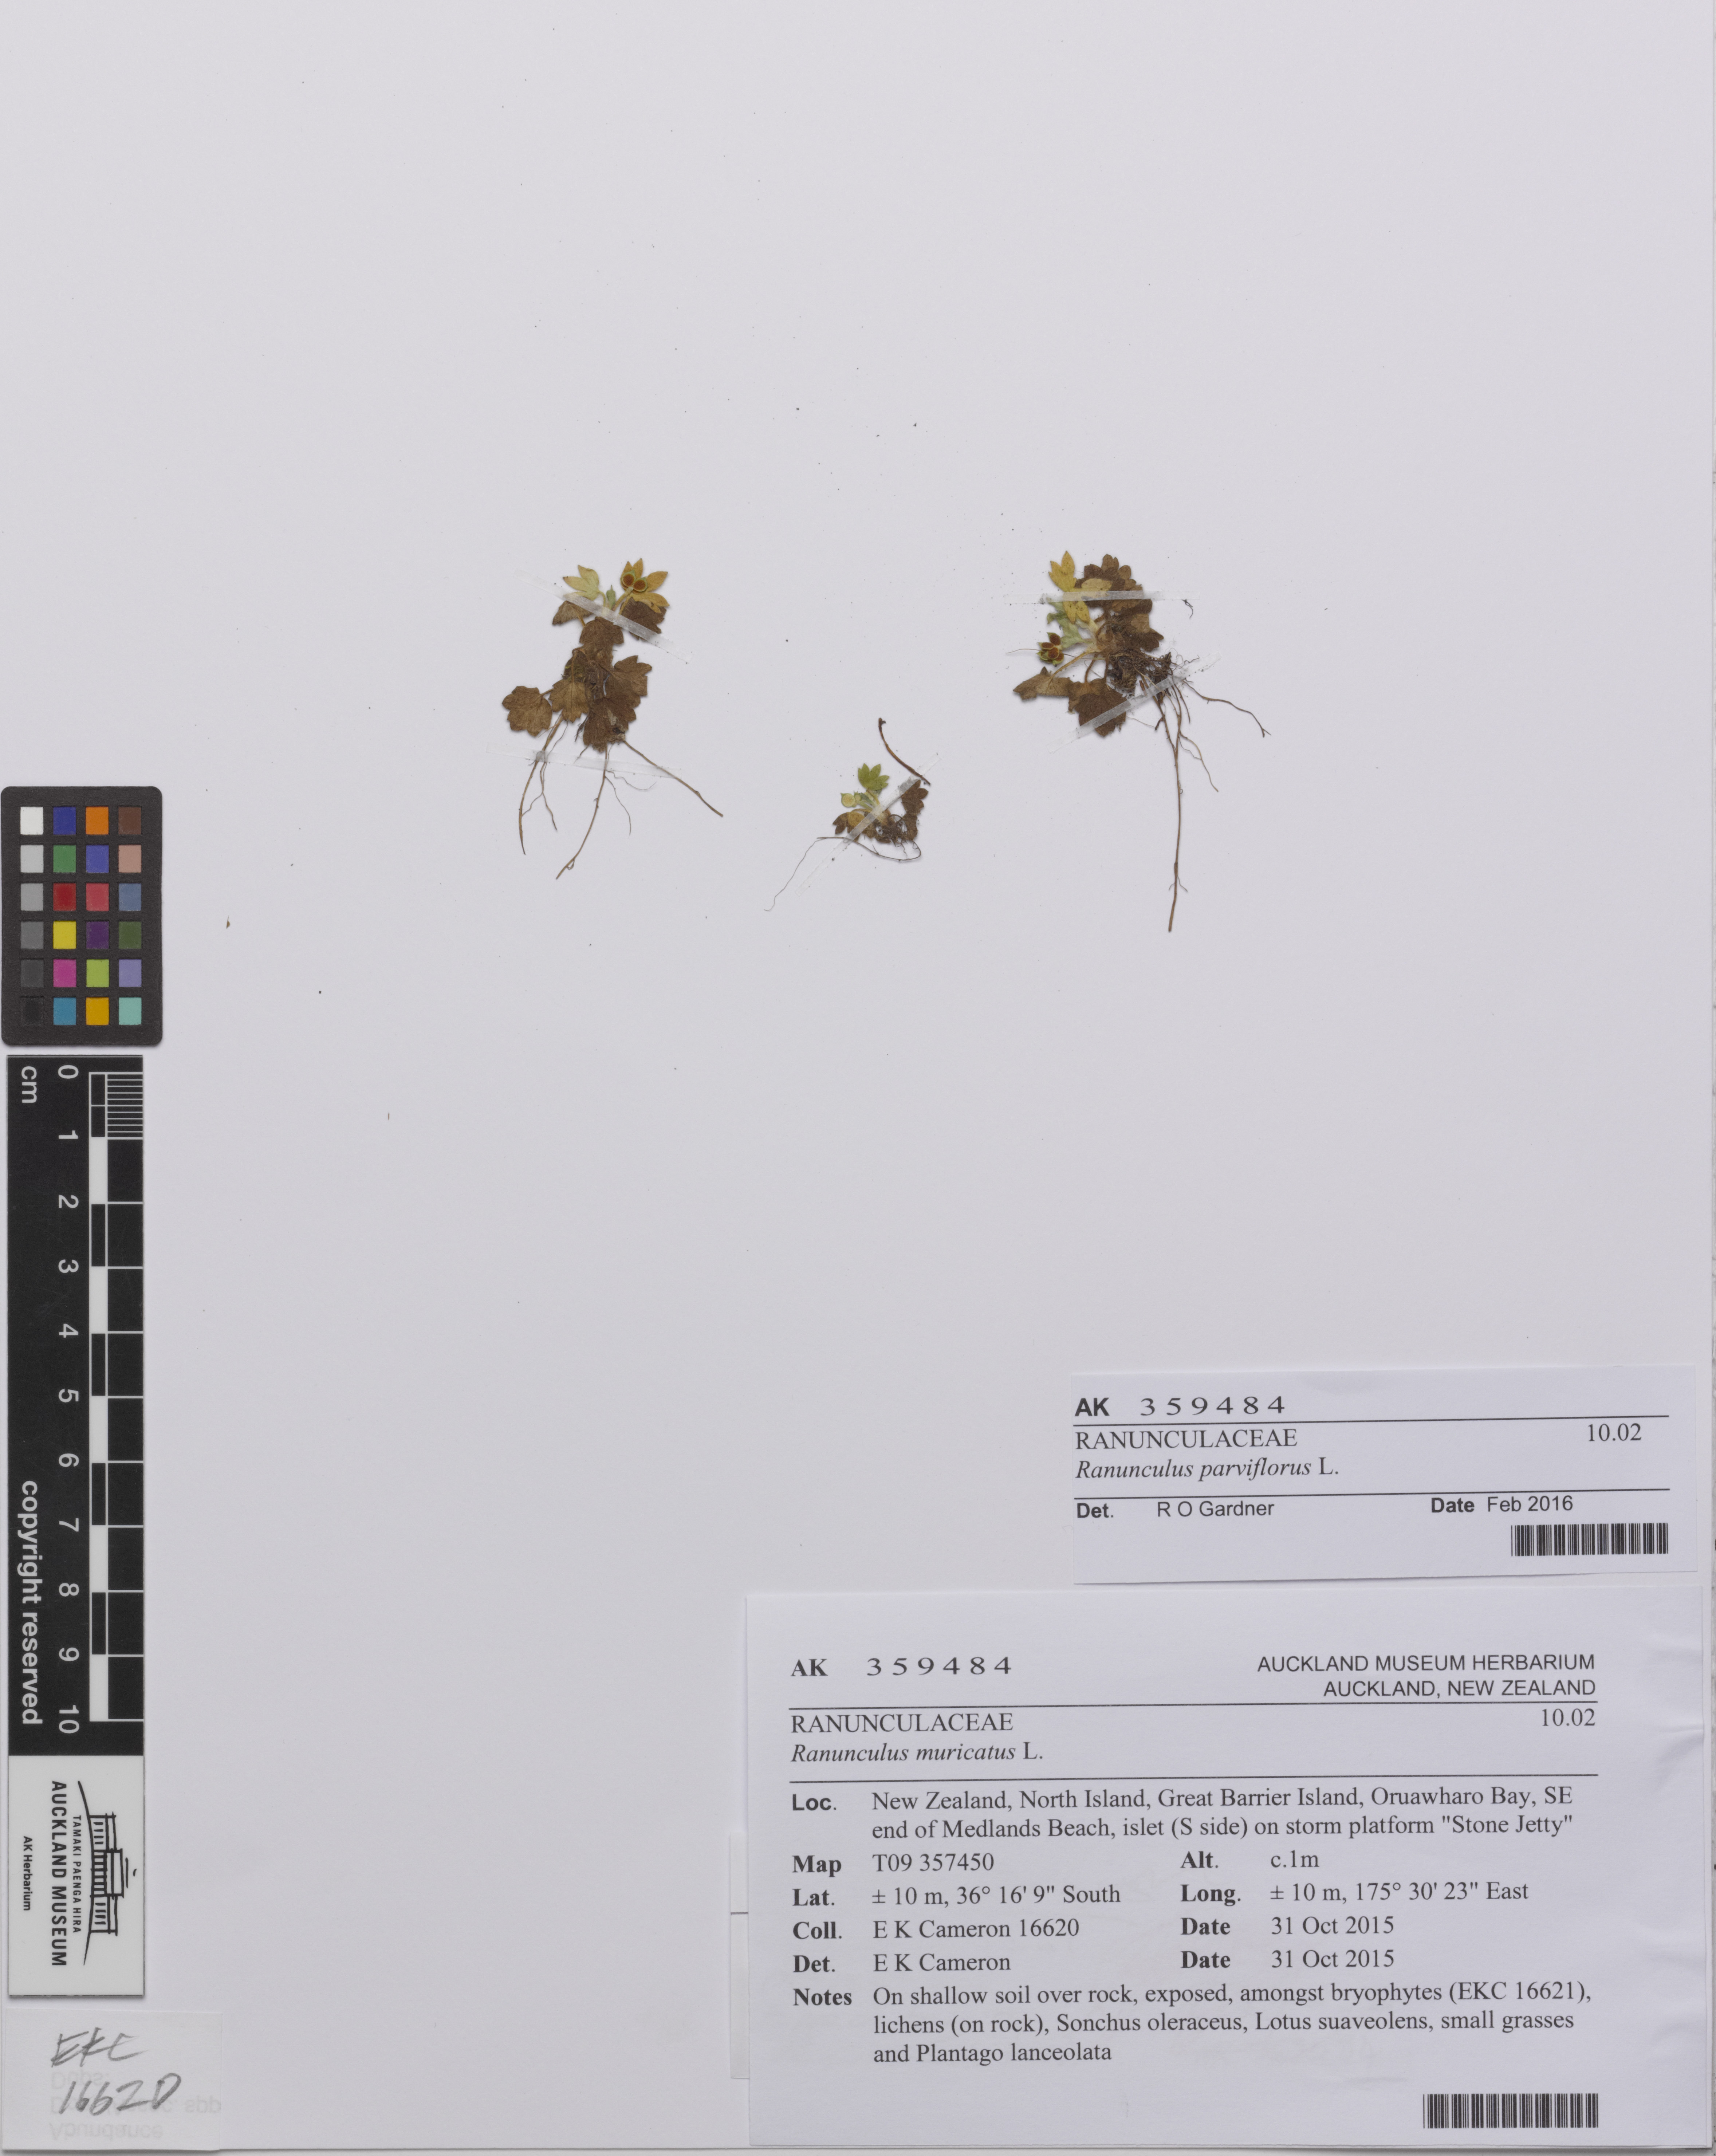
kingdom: Plantae
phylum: Tracheophyta
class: Magnoliopsida
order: Ranunculales
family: Ranunculaceae
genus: Ranunculus
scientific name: Ranunculus parviflorus
